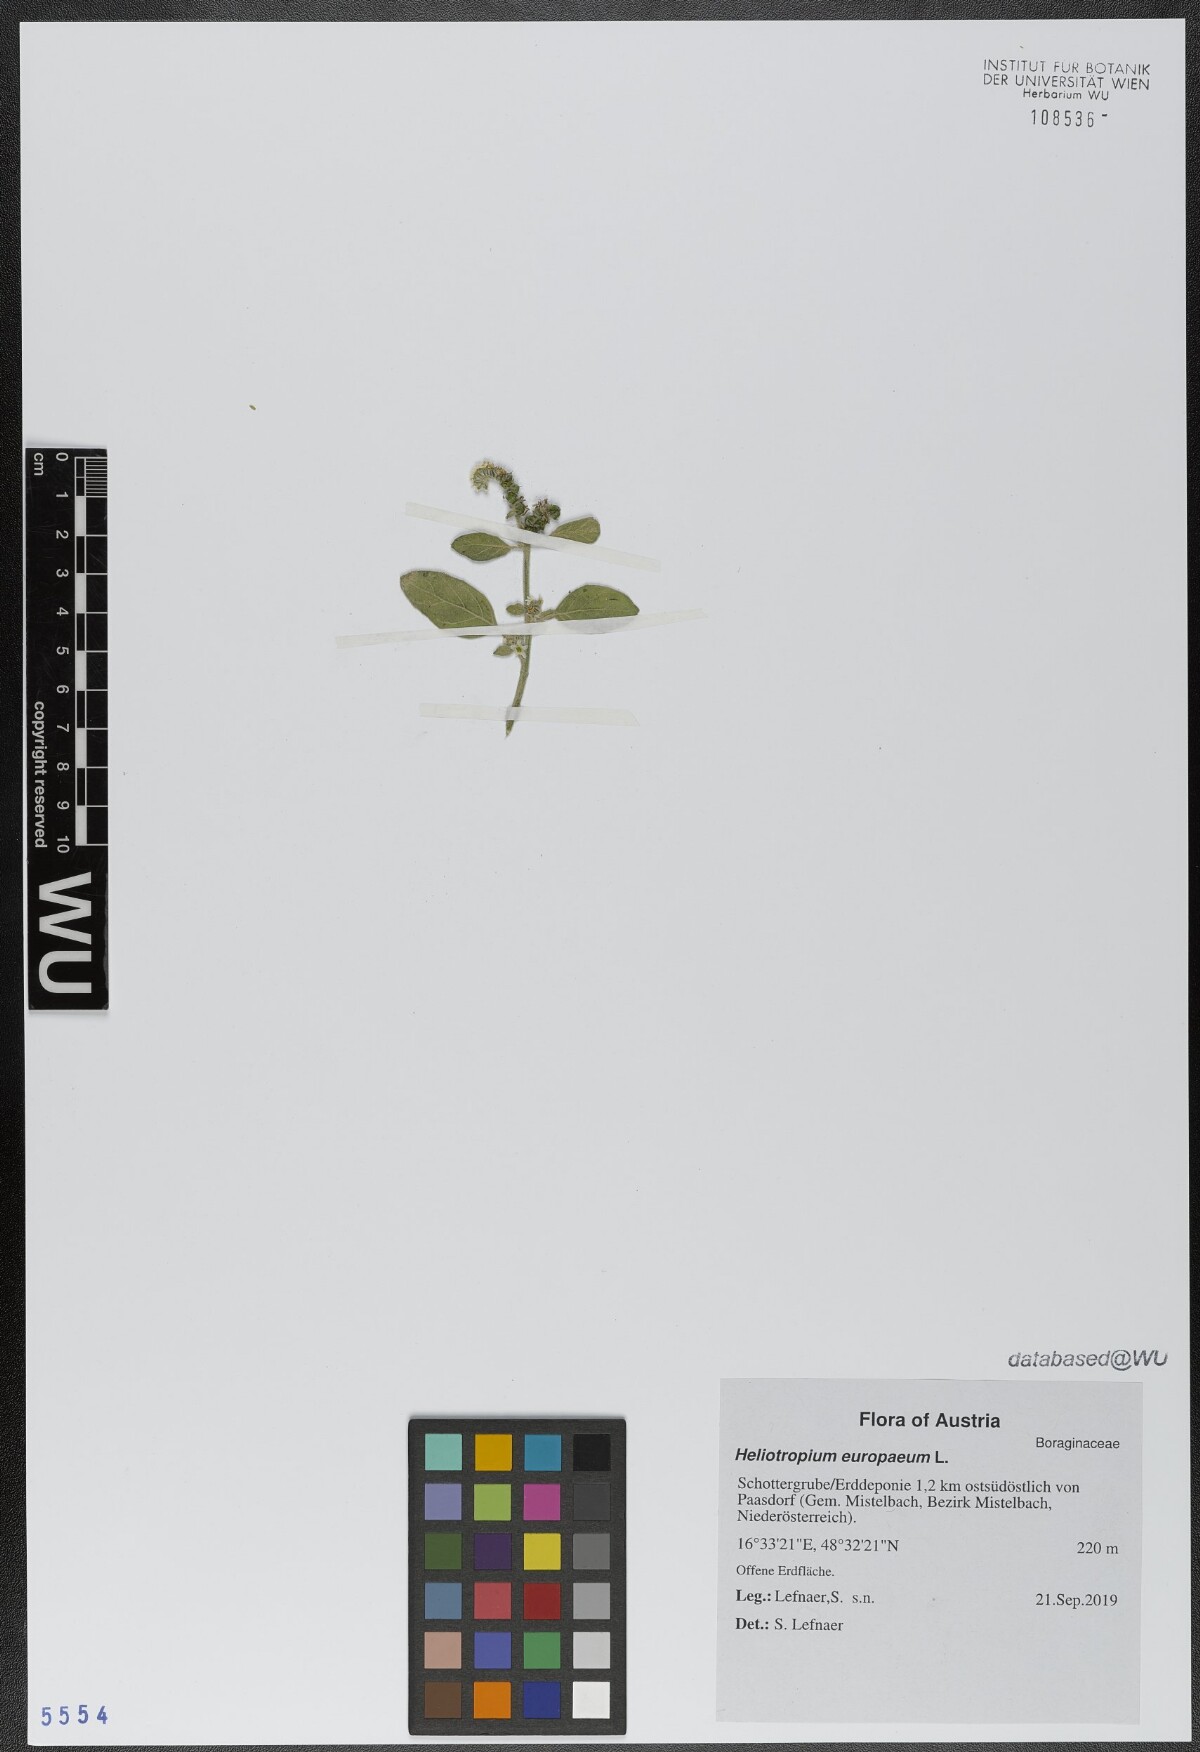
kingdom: Plantae
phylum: Tracheophyta
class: Magnoliopsida
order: Boraginales
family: Heliotropiaceae
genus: Heliotropium
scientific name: Heliotropium europaeum
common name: European heliotrope
